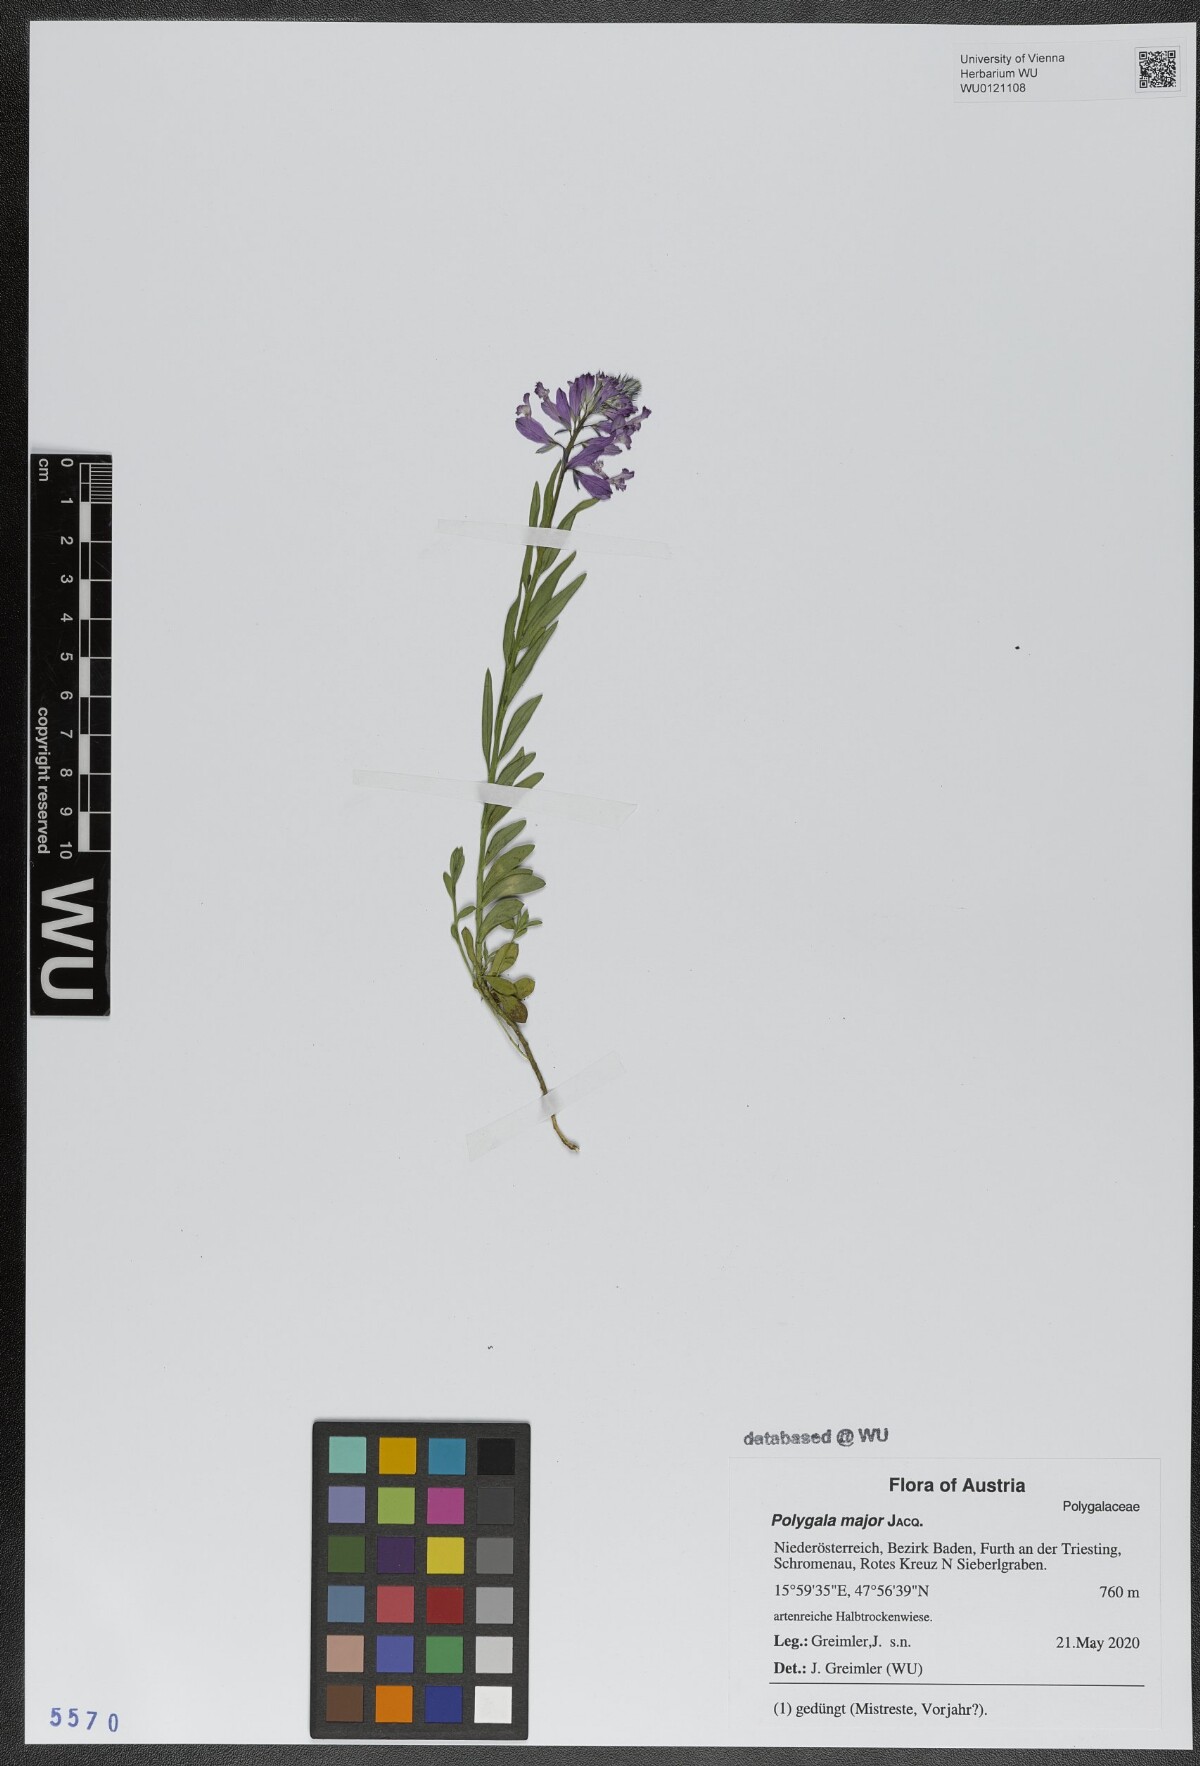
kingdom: Plantae
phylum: Tracheophyta
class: Magnoliopsida
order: Fabales
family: Polygalaceae
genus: Polygala
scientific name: Polygala major
